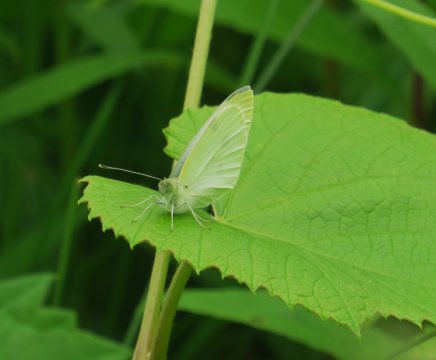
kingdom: Animalia
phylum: Arthropoda
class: Insecta
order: Lepidoptera
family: Pieridae
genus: Pieris
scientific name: Pieris rapae
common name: Cabbage White
